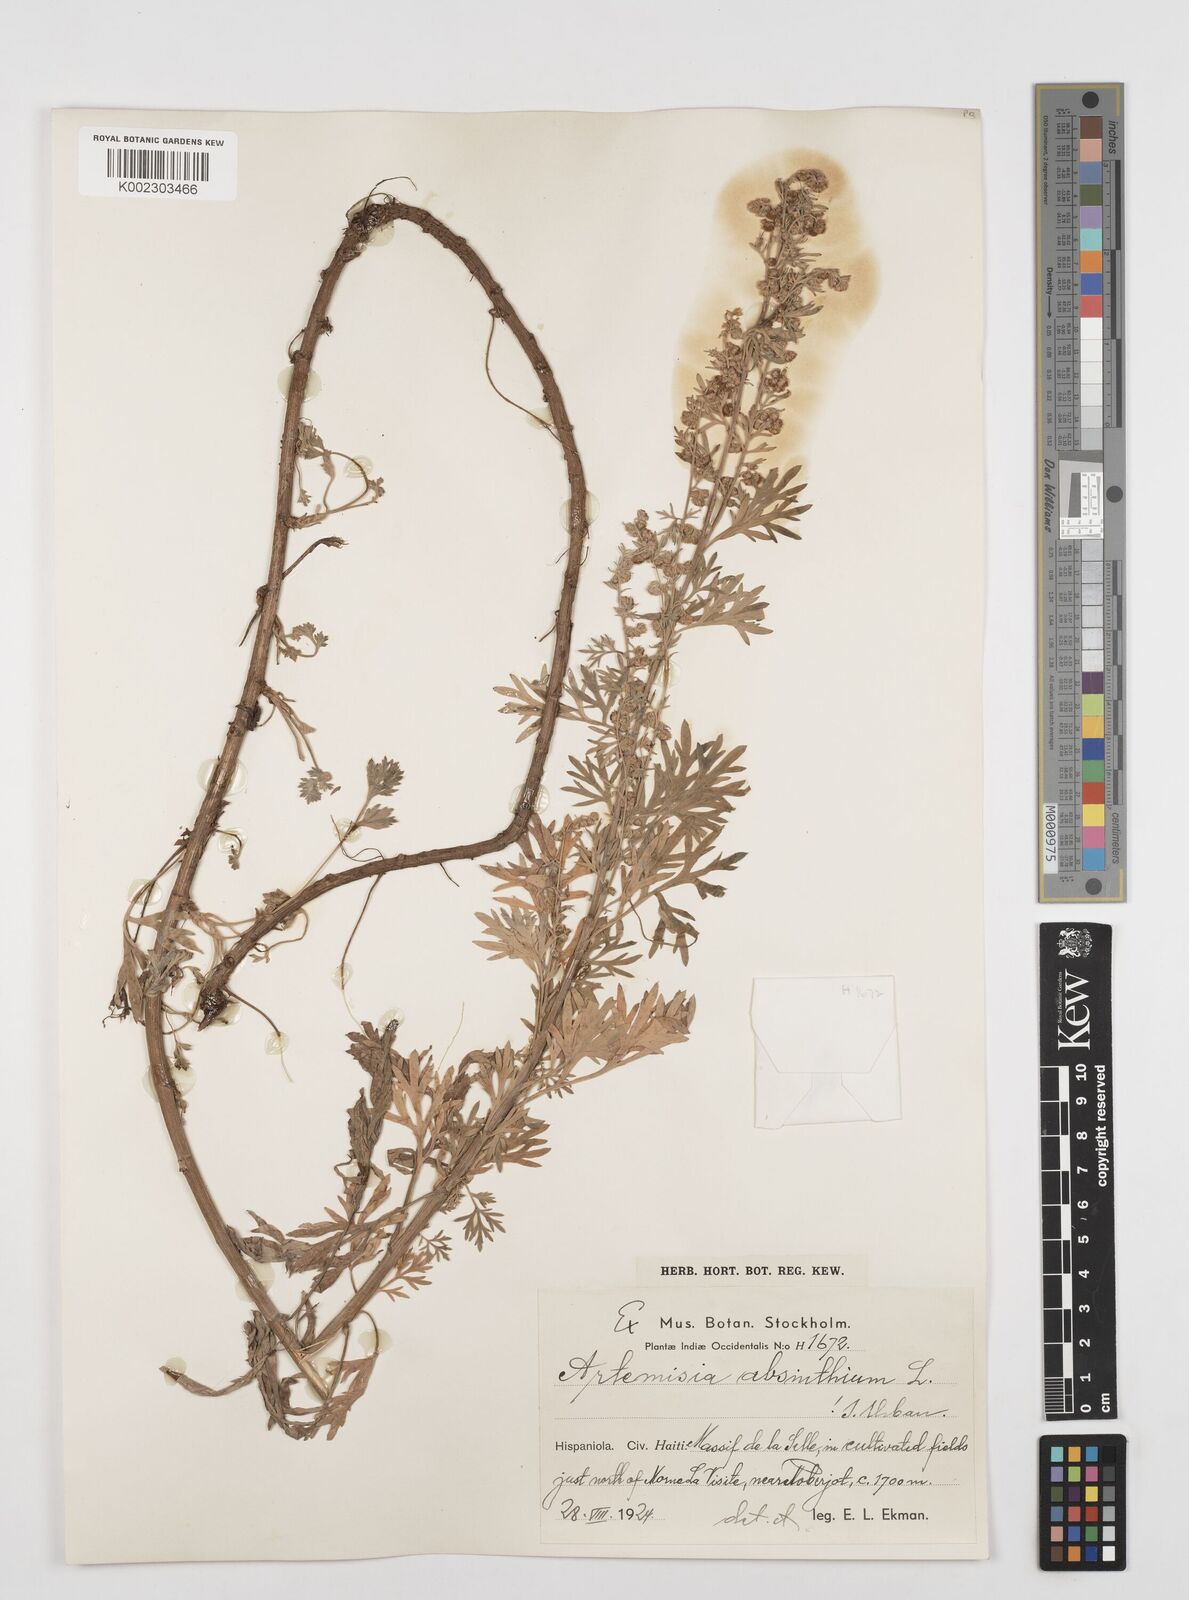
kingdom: Plantae
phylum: Tracheophyta
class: Magnoliopsida
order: Asterales
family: Asteraceae
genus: Artemisia
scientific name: Artemisia absinthium
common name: Wormwood
